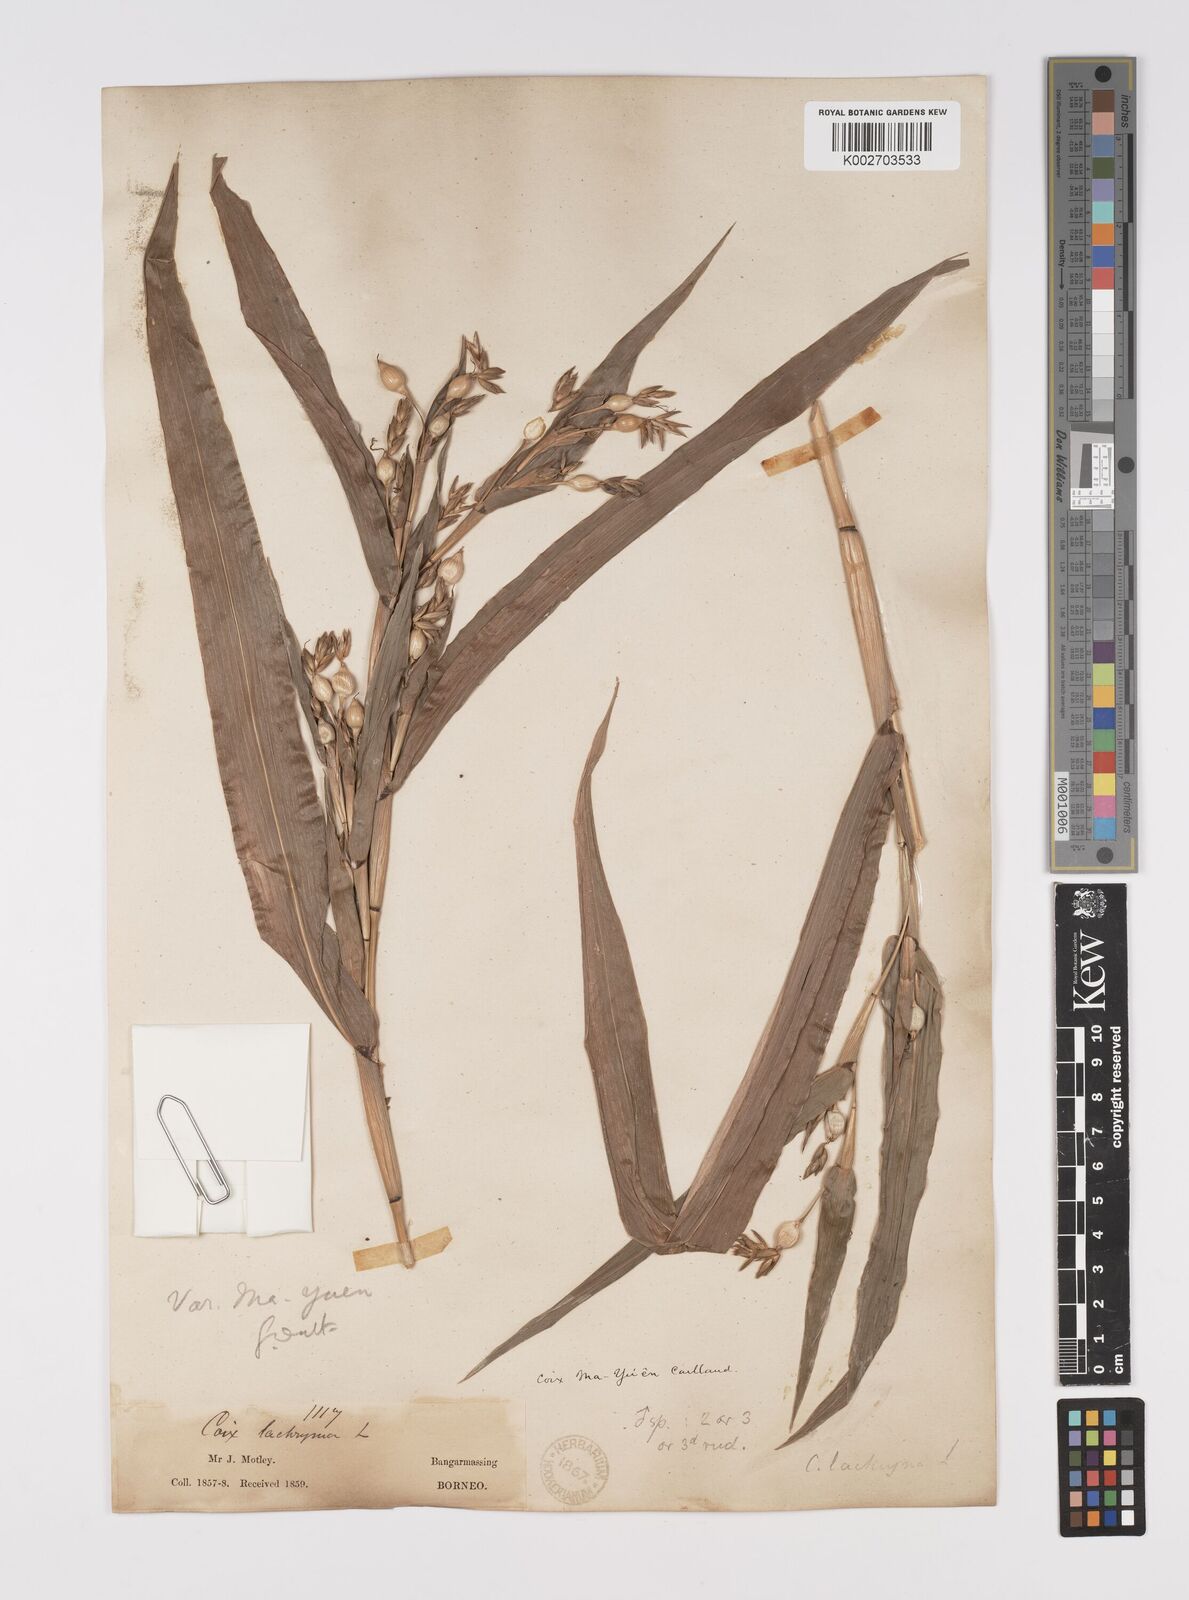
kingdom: Plantae
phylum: Tracheophyta
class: Liliopsida
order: Poales
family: Poaceae
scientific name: Poaceae
